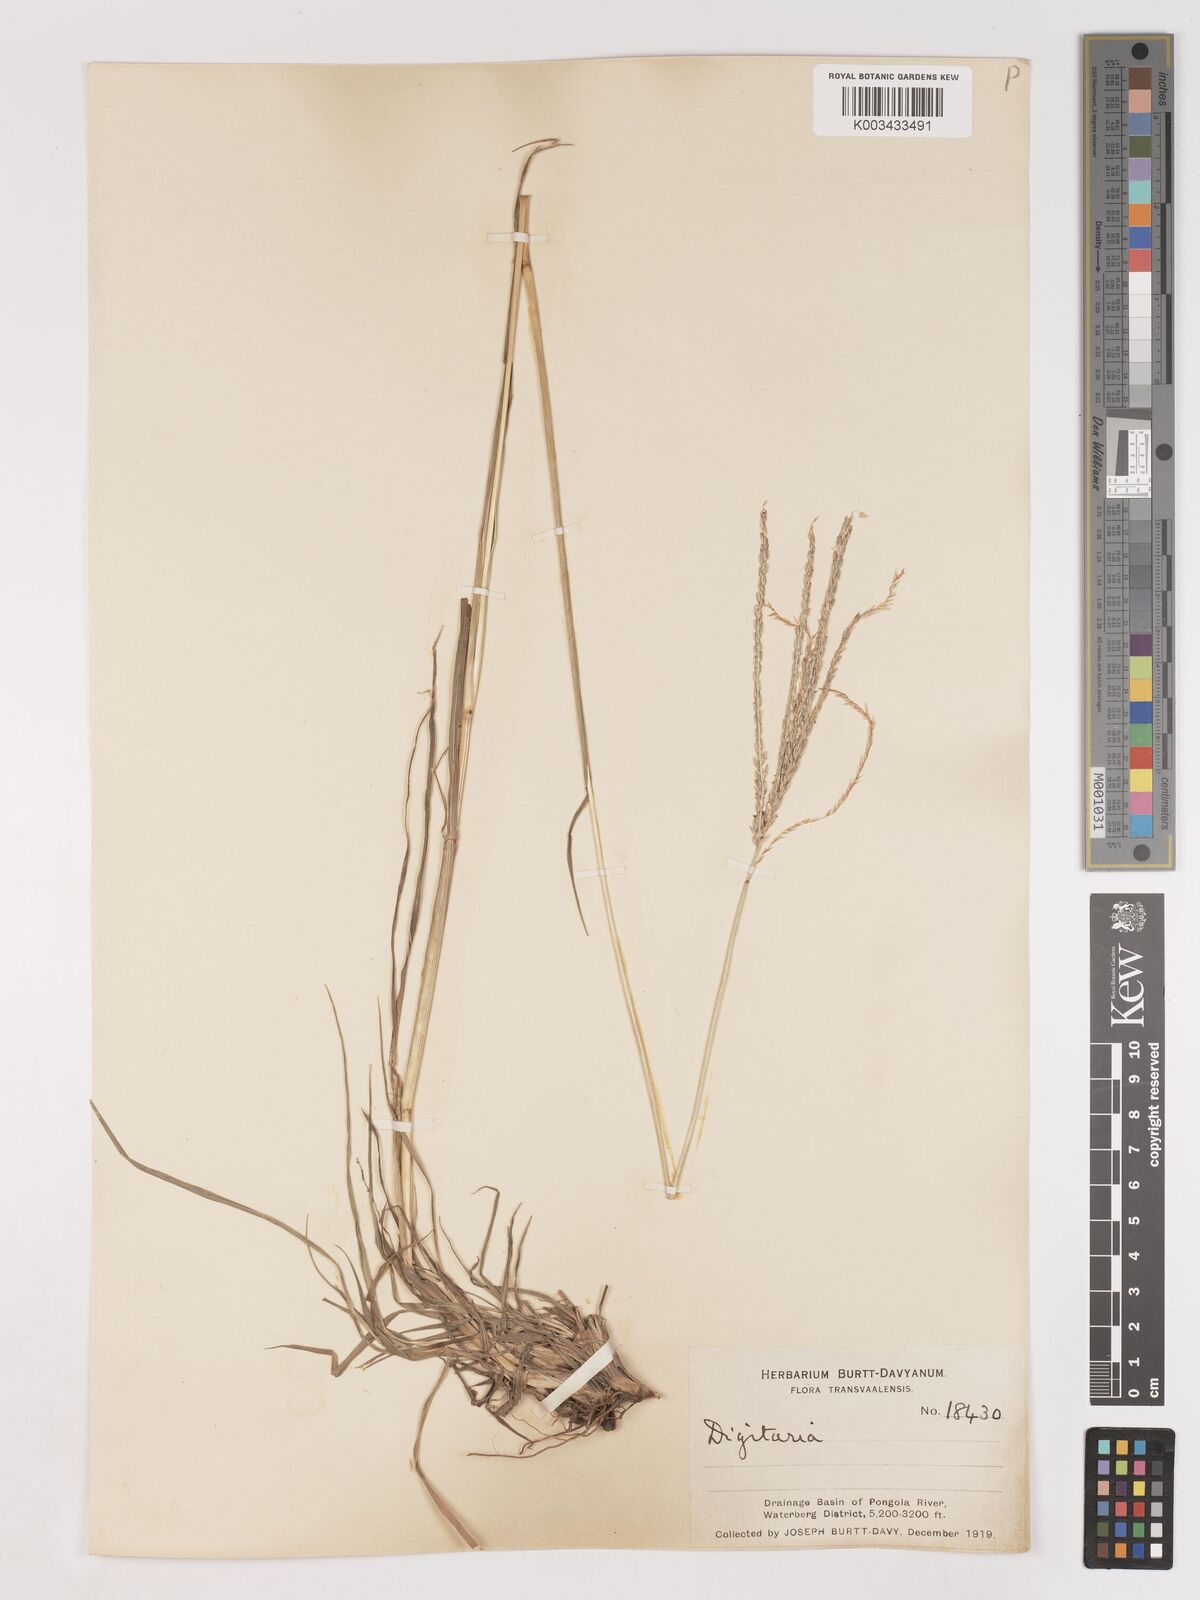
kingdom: Plantae
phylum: Tracheophyta
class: Liliopsida
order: Poales
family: Poaceae
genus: Digitaria
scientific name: Digitaria eriantha
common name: Digitgrass
